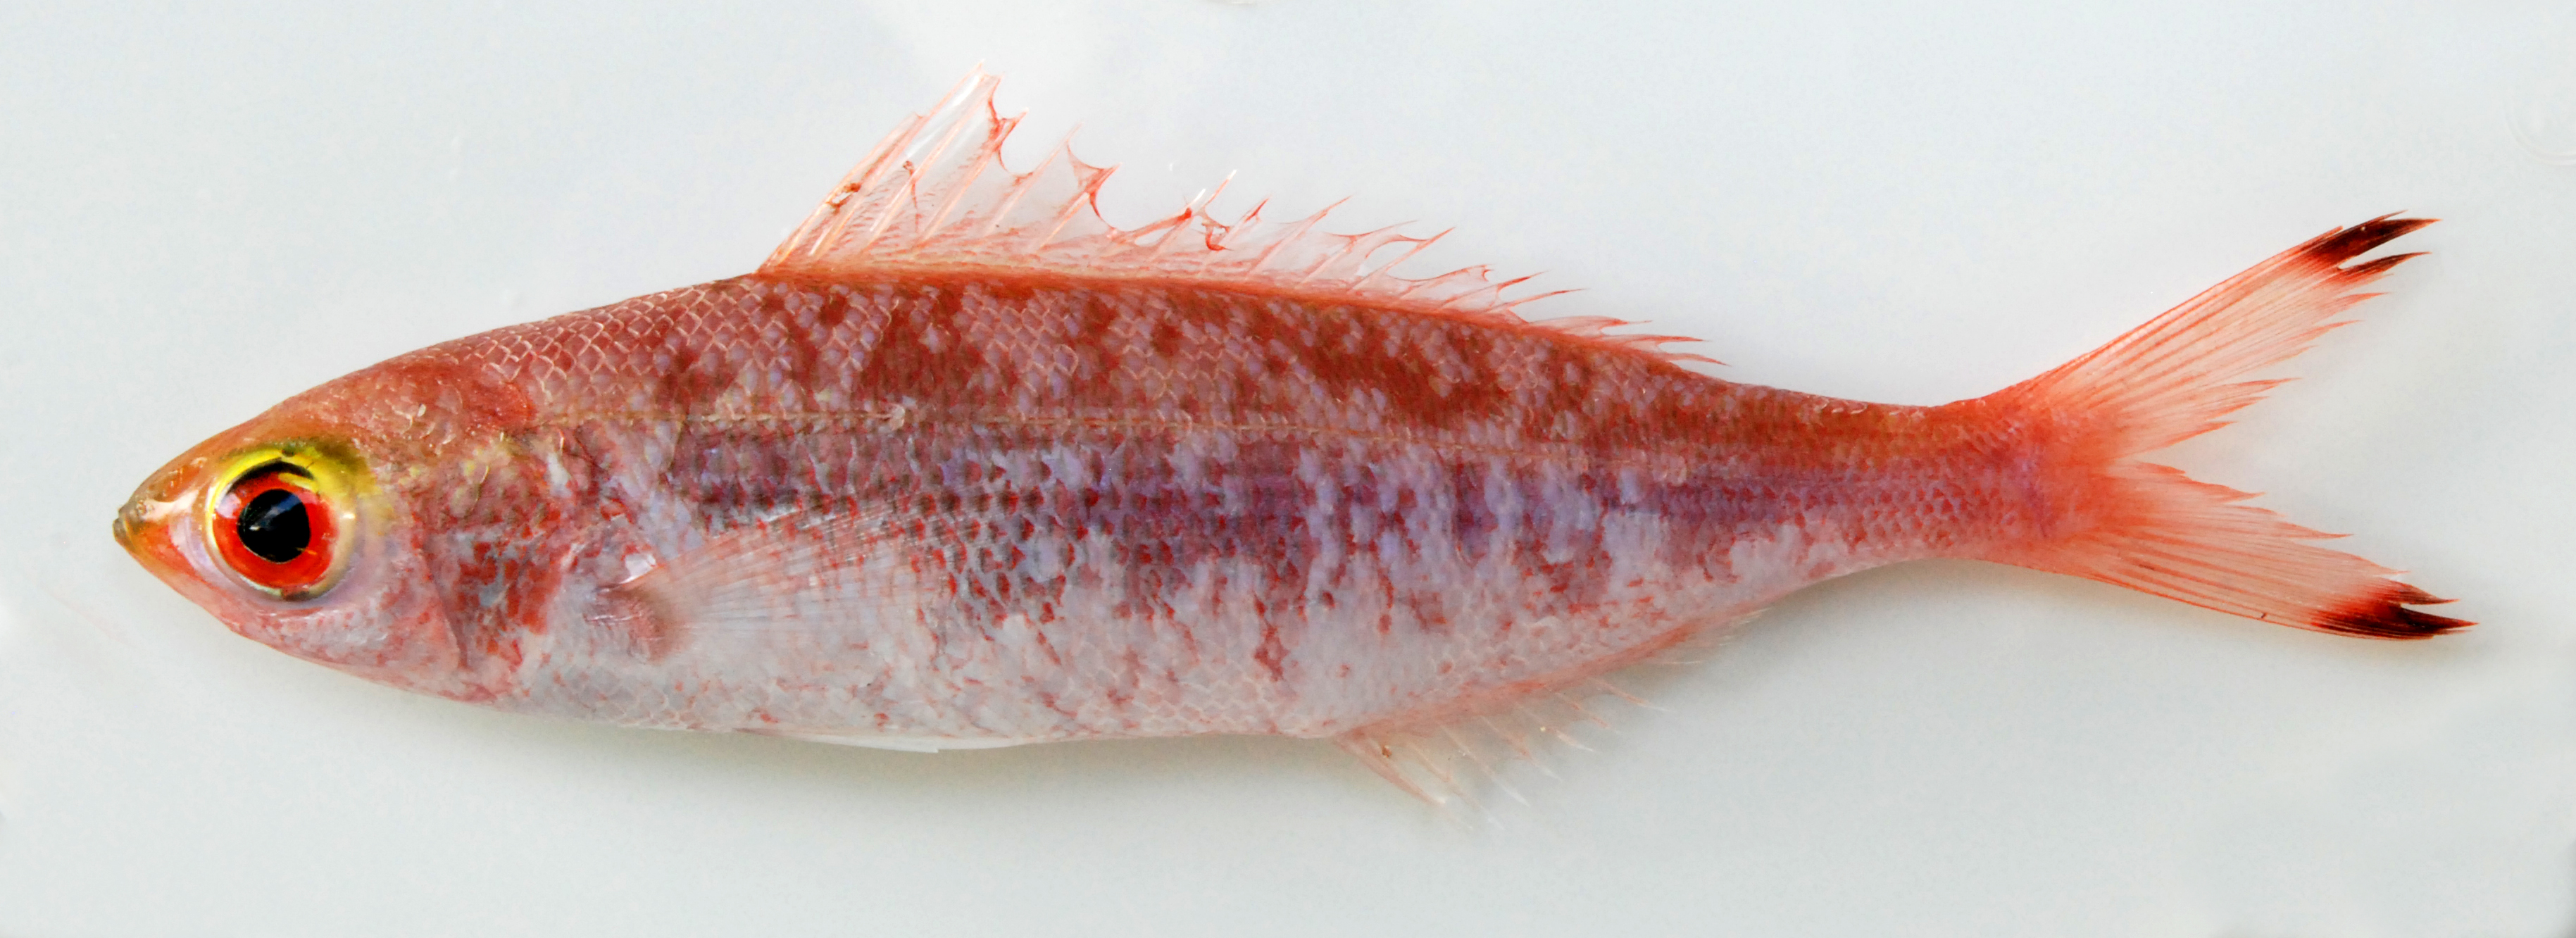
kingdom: Animalia
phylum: Chordata
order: Perciformes
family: Caesionidae
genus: Pterocaesio
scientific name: Pterocaesio
